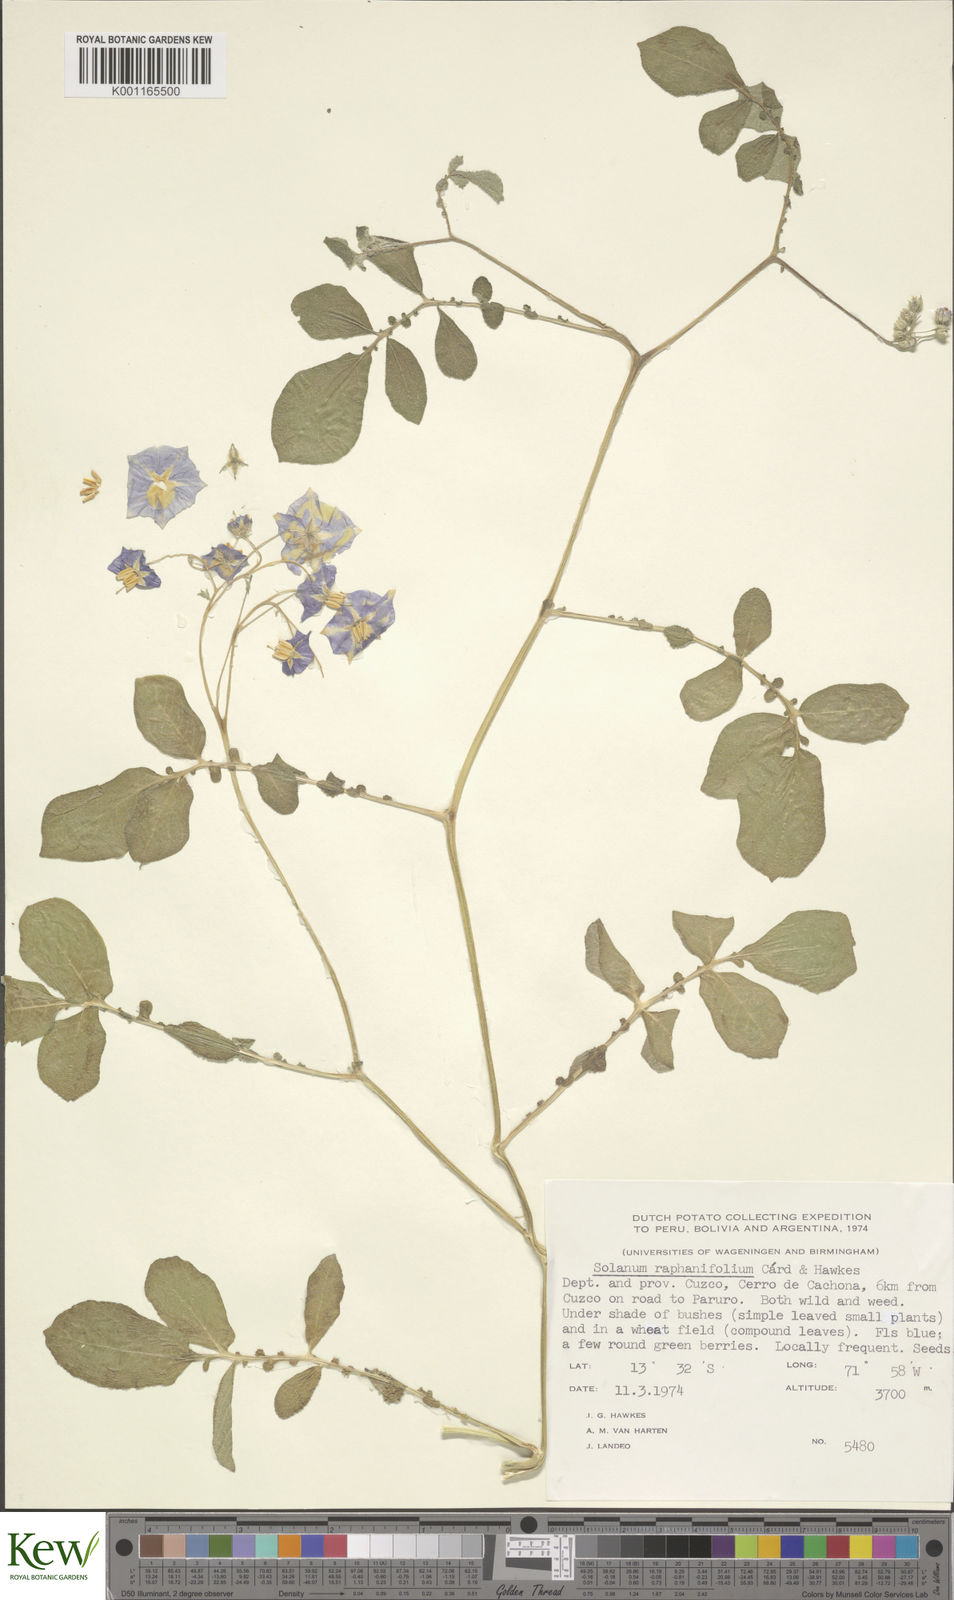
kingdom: Plantae
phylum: Tracheophyta
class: Magnoliopsida
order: Solanales
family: Solanaceae
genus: Solanum
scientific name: Solanum raphanifolium
